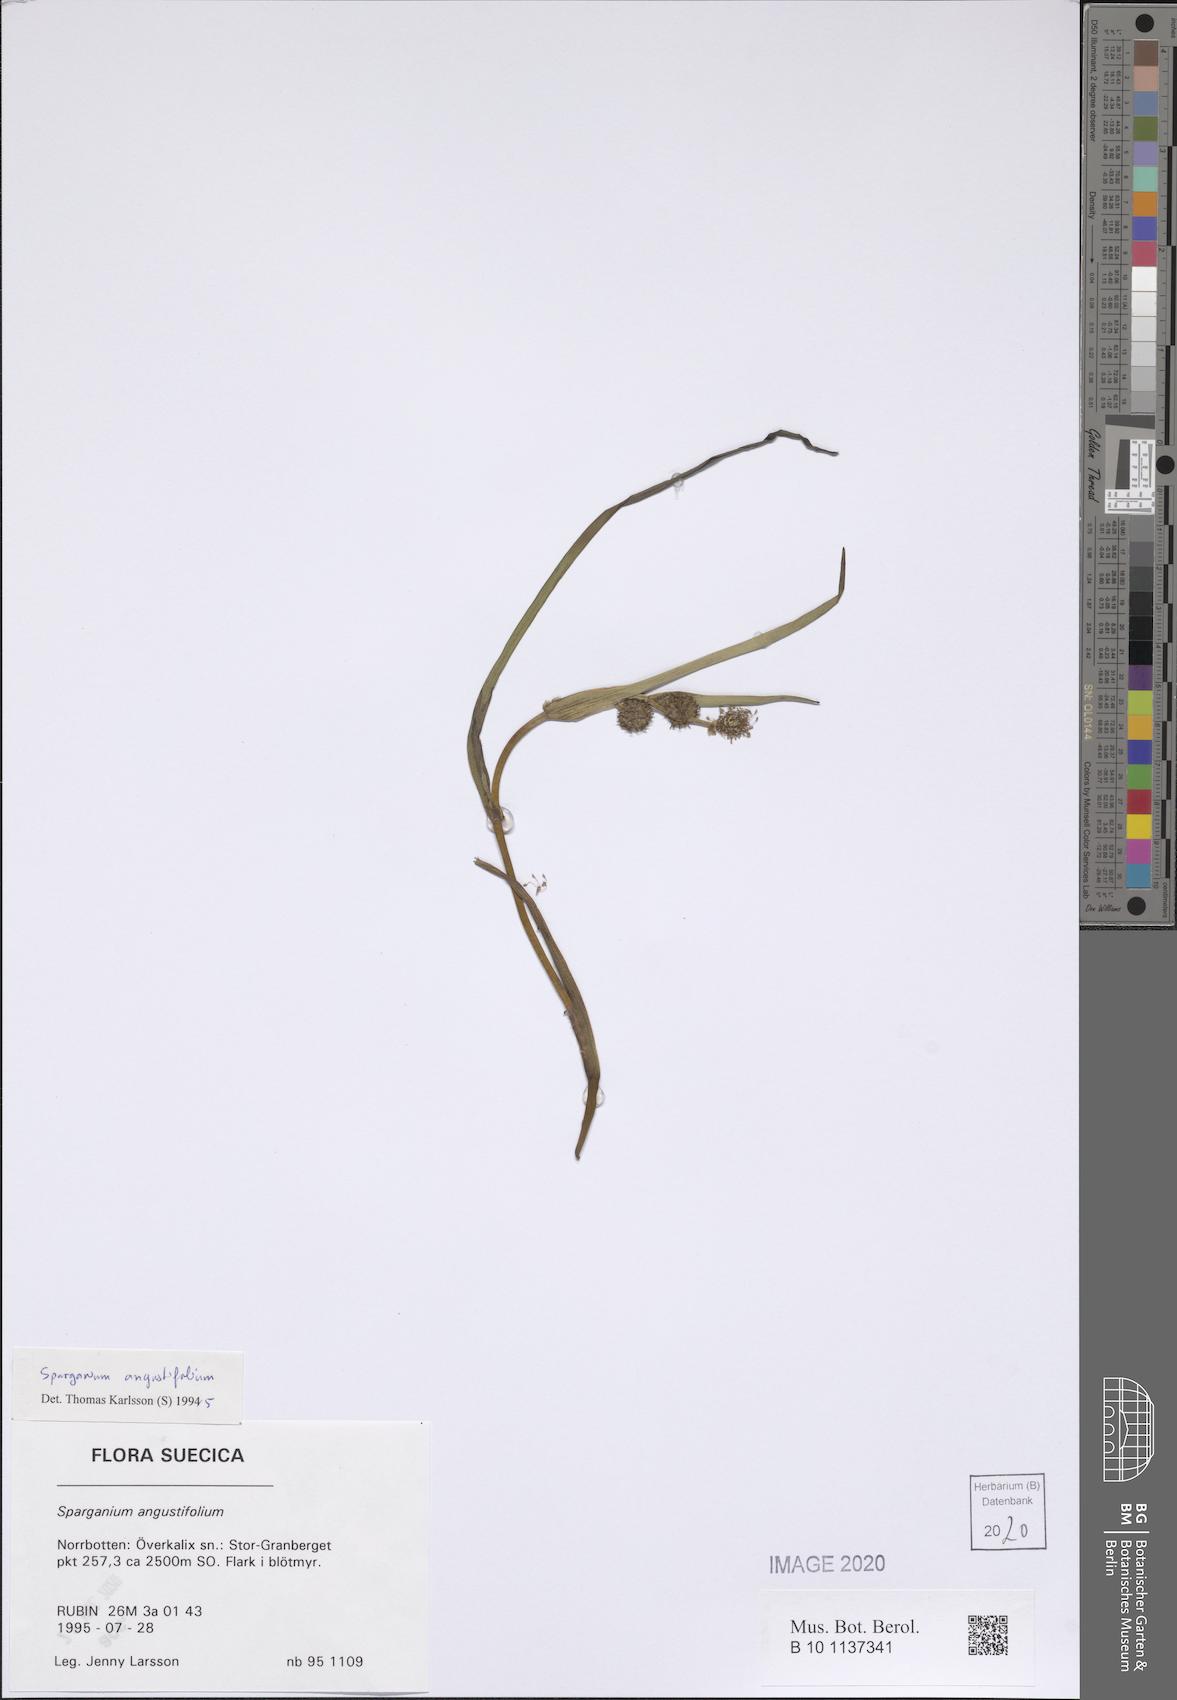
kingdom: Plantae
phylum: Tracheophyta
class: Liliopsida
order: Poales
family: Typhaceae
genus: Sparganium
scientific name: Sparganium angustifolium
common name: Floating bur-reed
